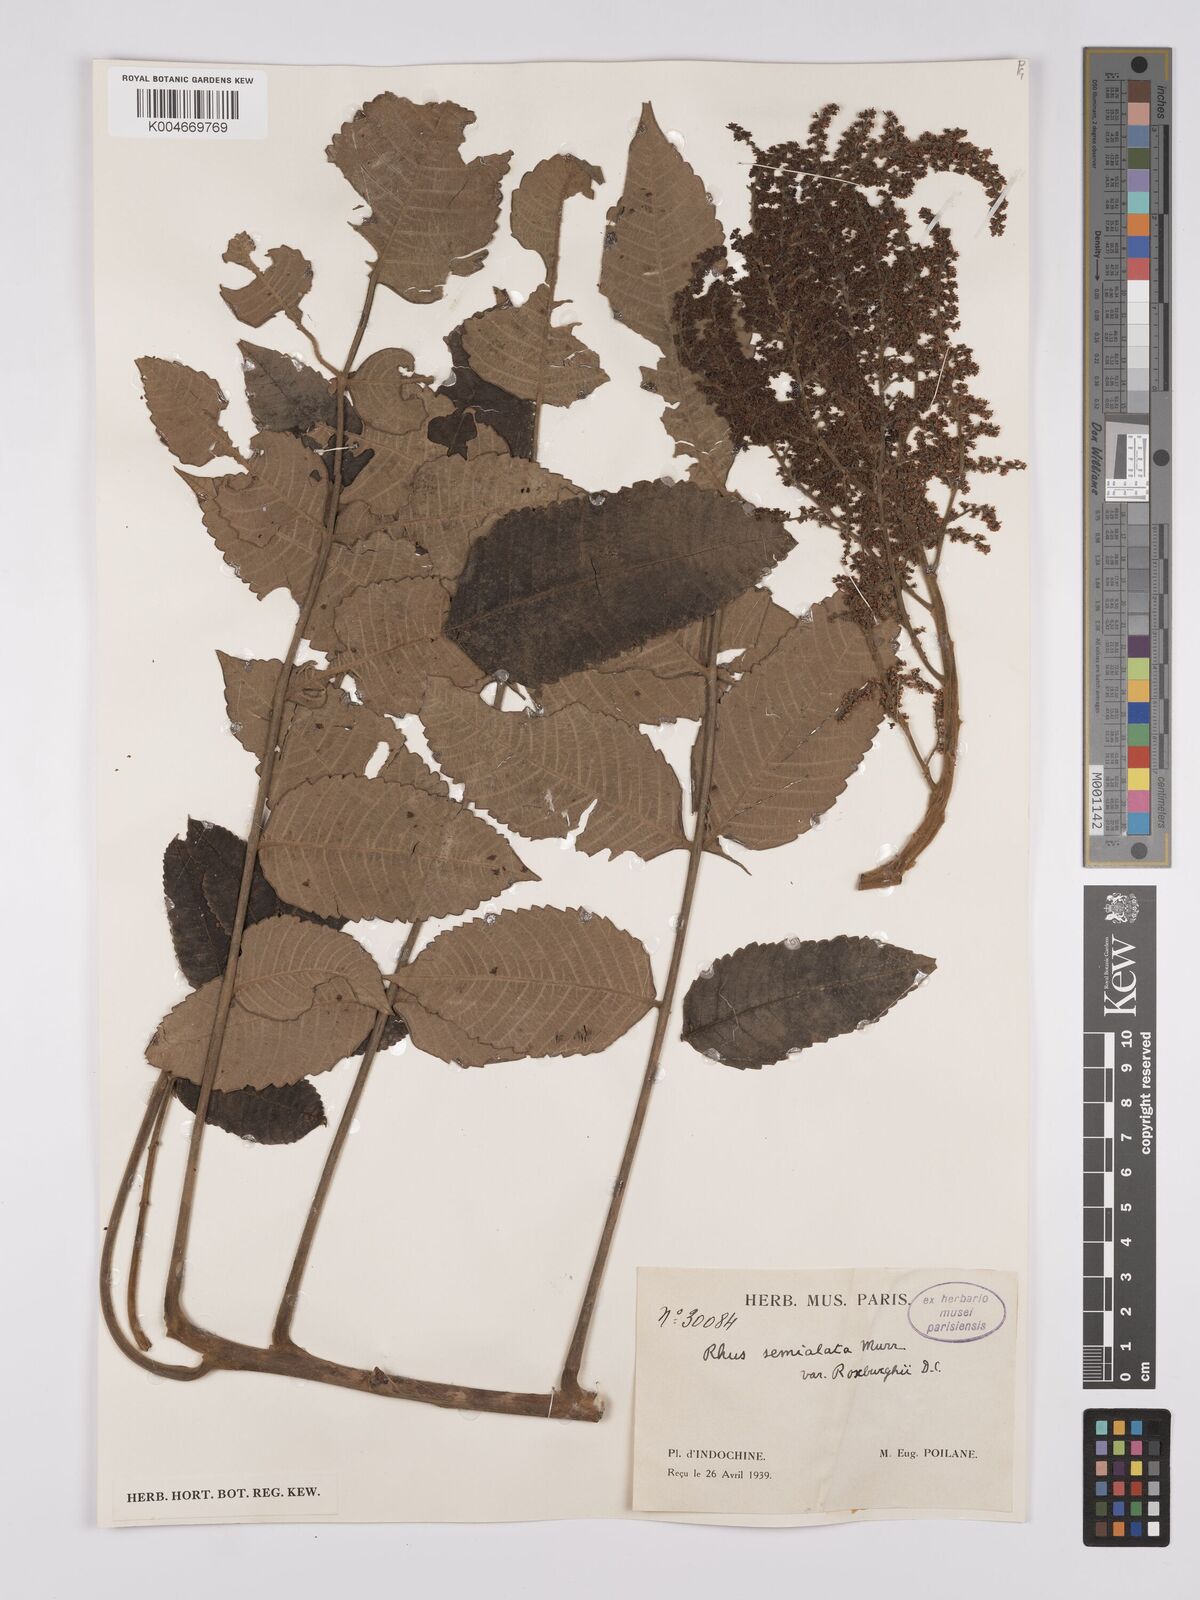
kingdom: Plantae
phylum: Tracheophyta
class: Magnoliopsida
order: Sapindales
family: Anacardiaceae
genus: Rhus
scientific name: Rhus chinensis
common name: Chinese gall
